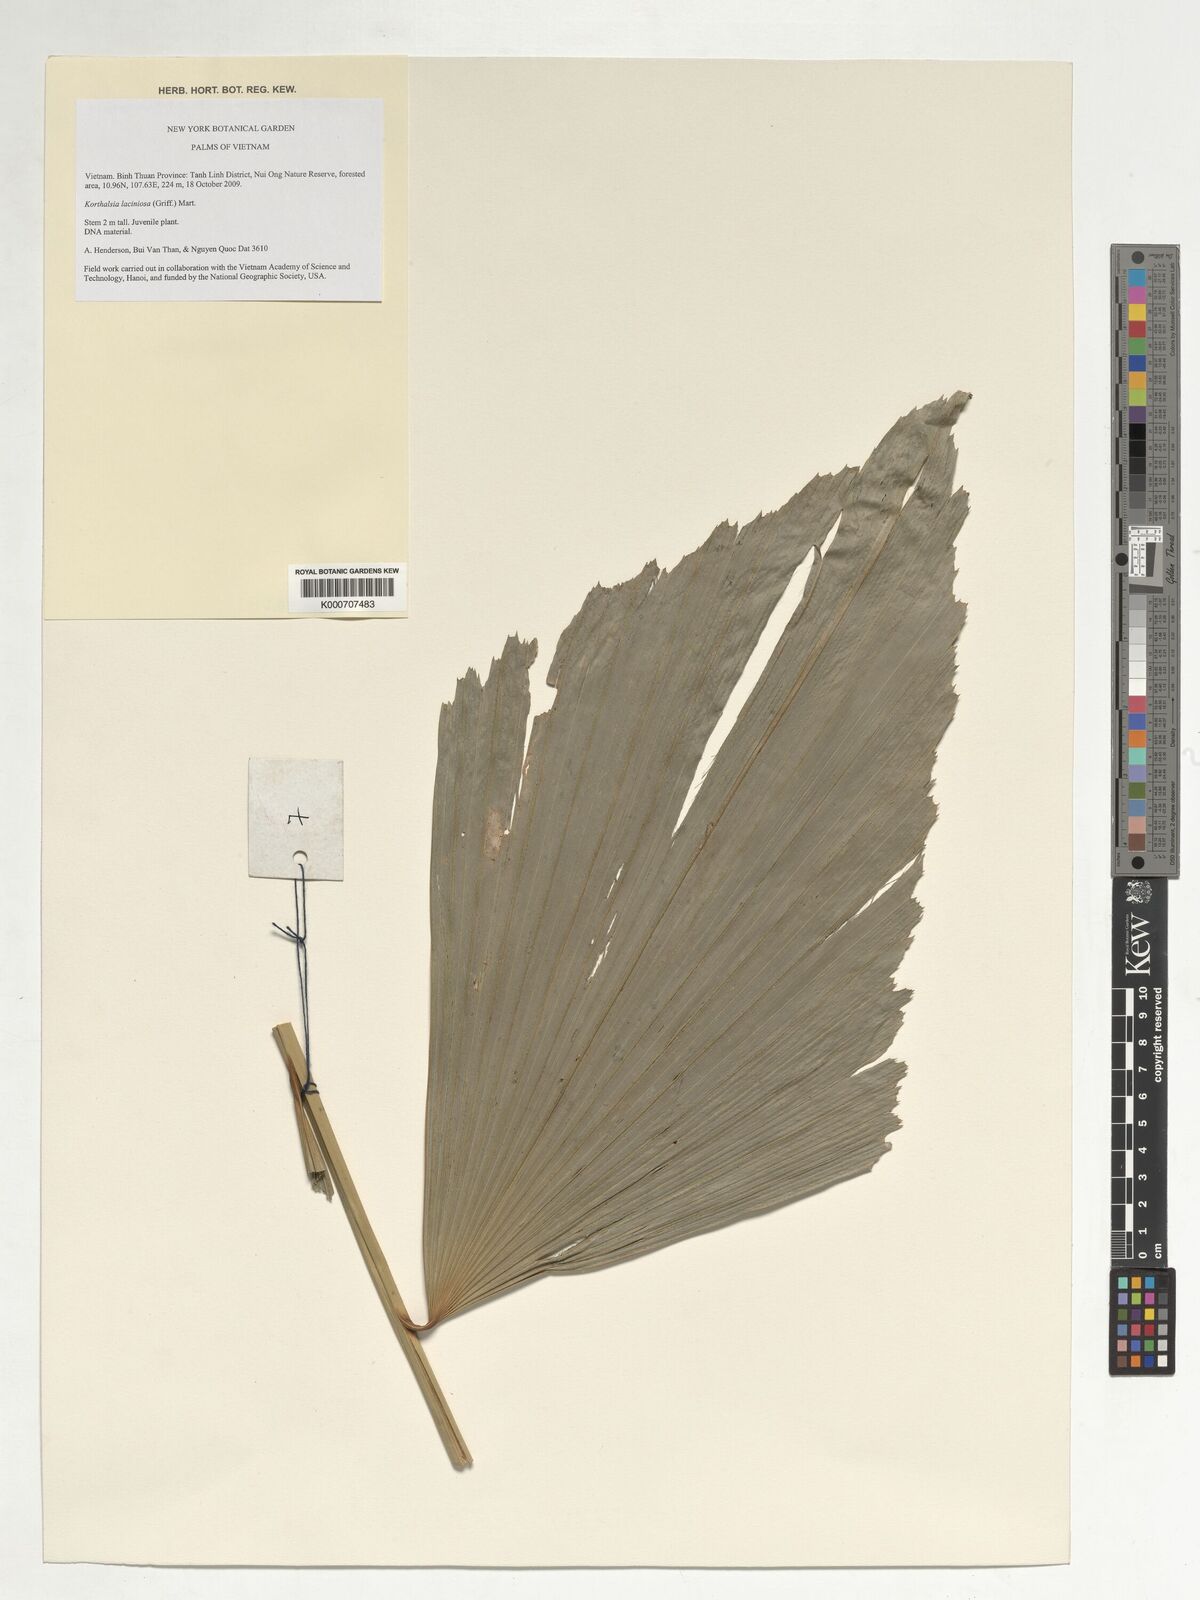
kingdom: Plantae
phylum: Tracheophyta
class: Liliopsida
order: Arecales
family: Arecaceae
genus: Korthalsia
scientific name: Korthalsia laciniosa
